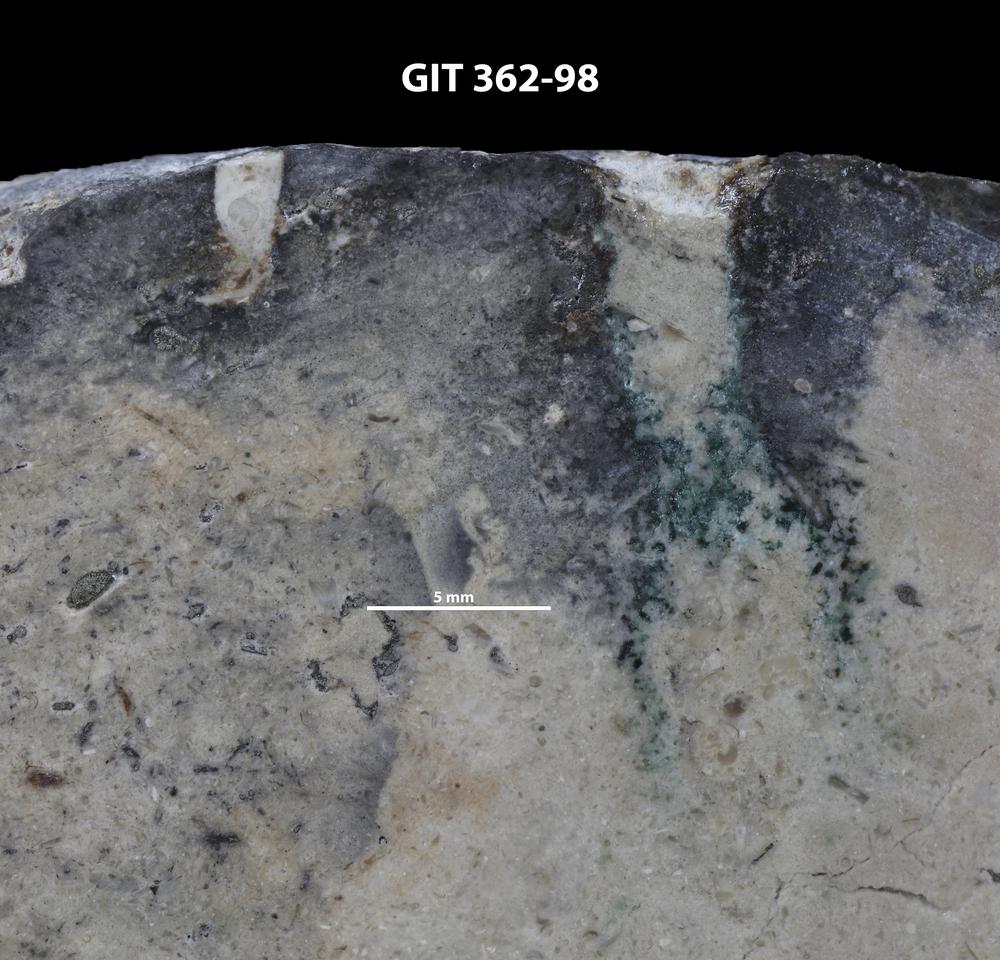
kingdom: Animalia
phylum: Sipuncula
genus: Trypanites
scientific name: Trypanites
